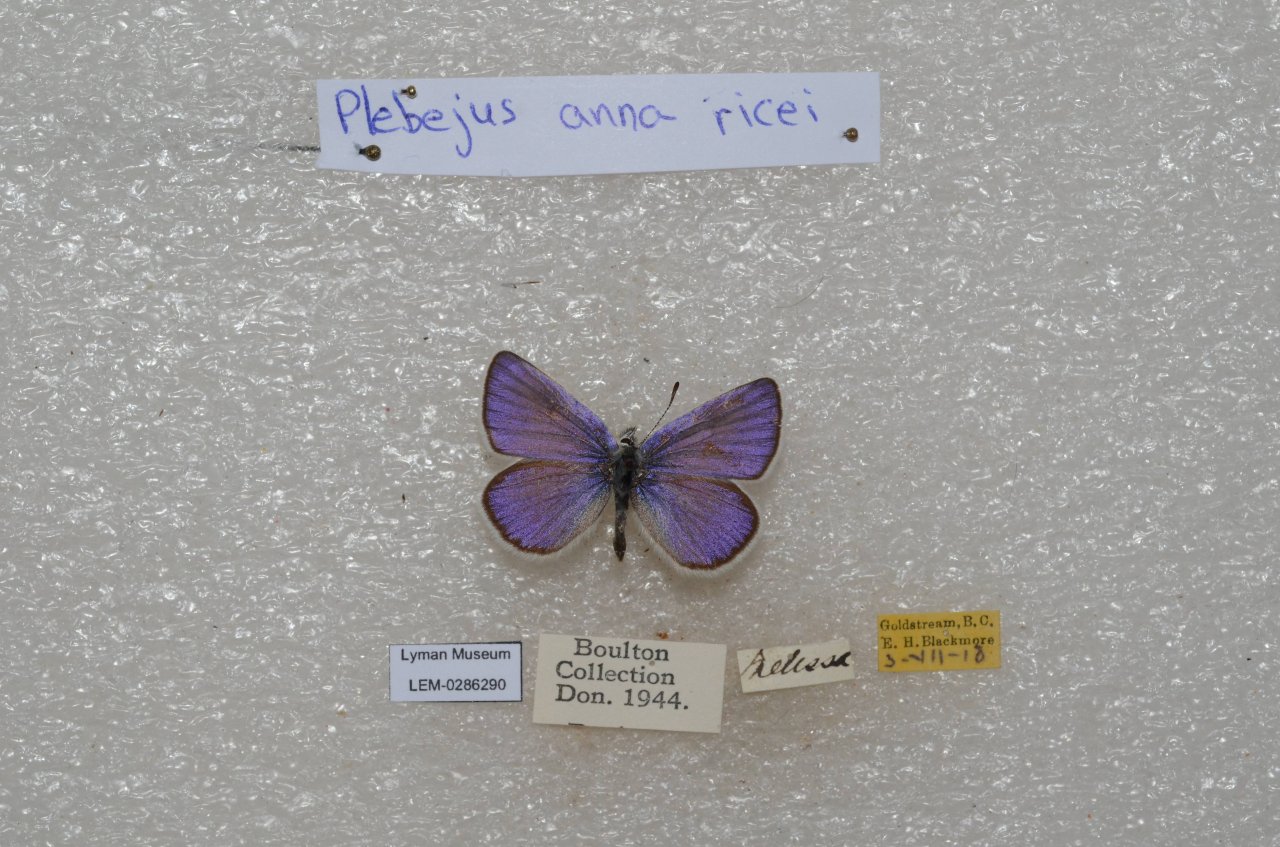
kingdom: Animalia
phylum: Arthropoda
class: Insecta
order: Lepidoptera
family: Lycaenidae
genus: Lycaeides
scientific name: Lycaeides anna
